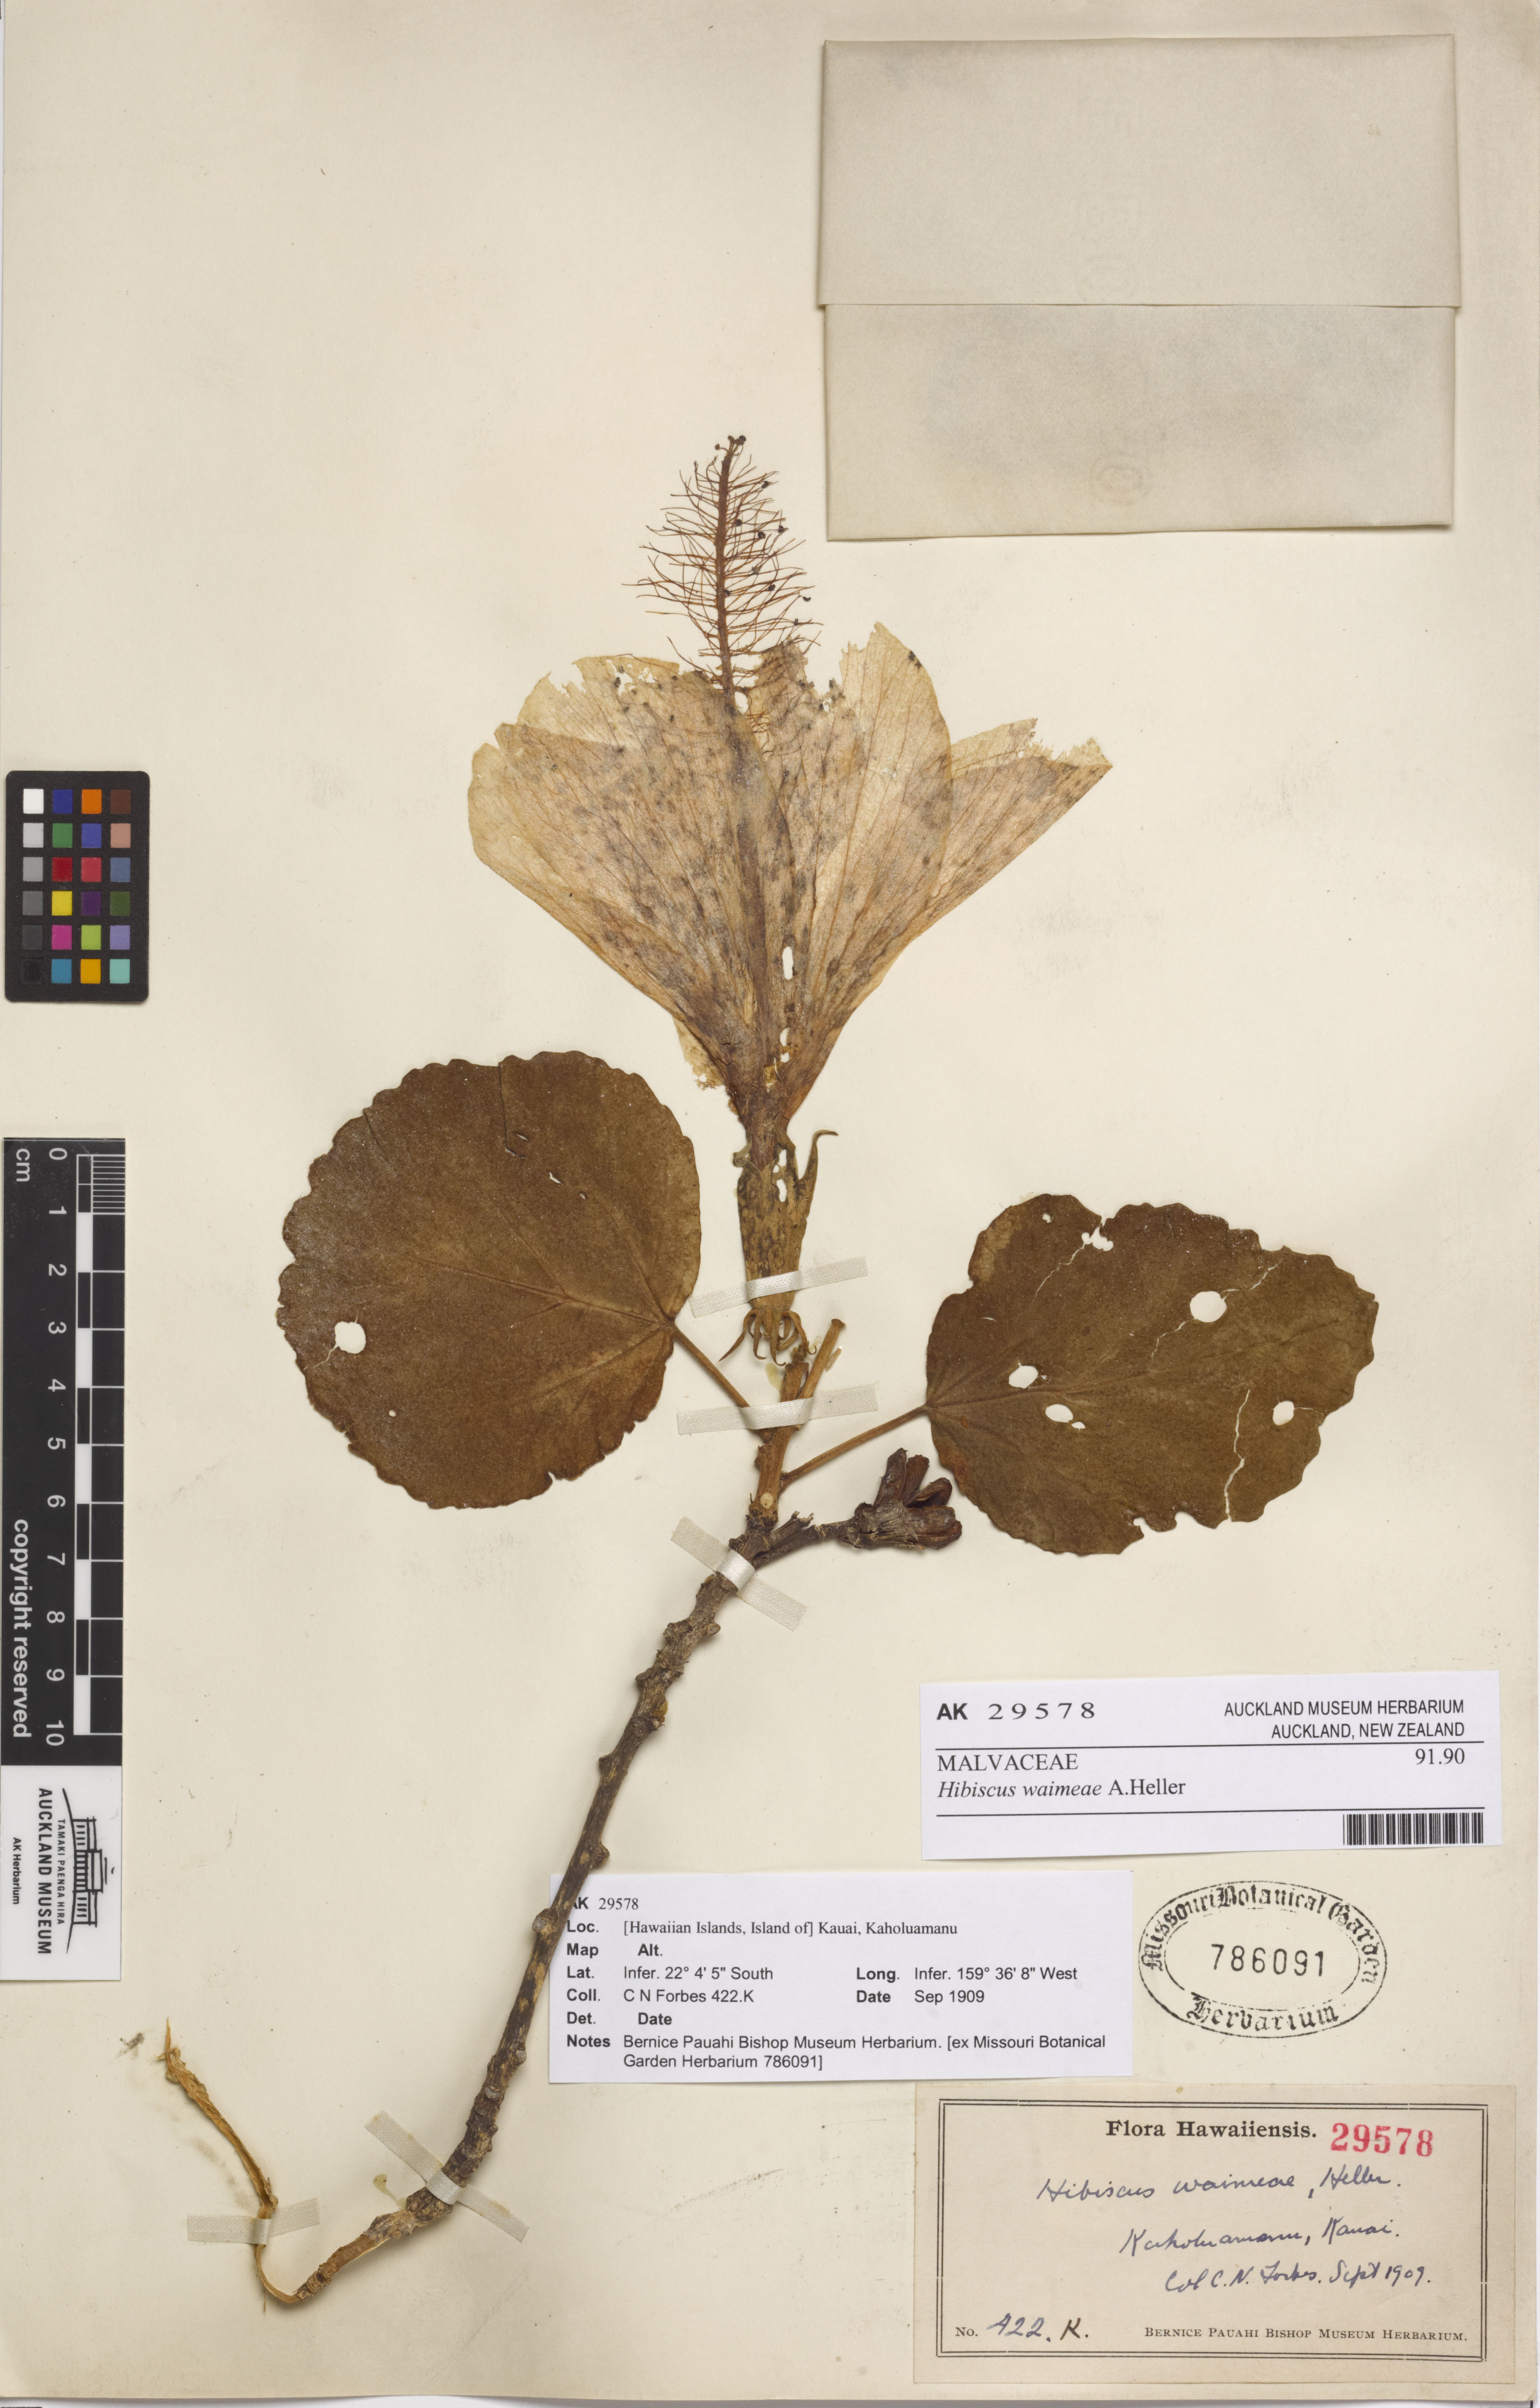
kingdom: Plantae
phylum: Tracheophyta
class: Magnoliopsida
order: Malvales
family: Malvaceae
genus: Hibiscus
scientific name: Hibiscus waimeae
